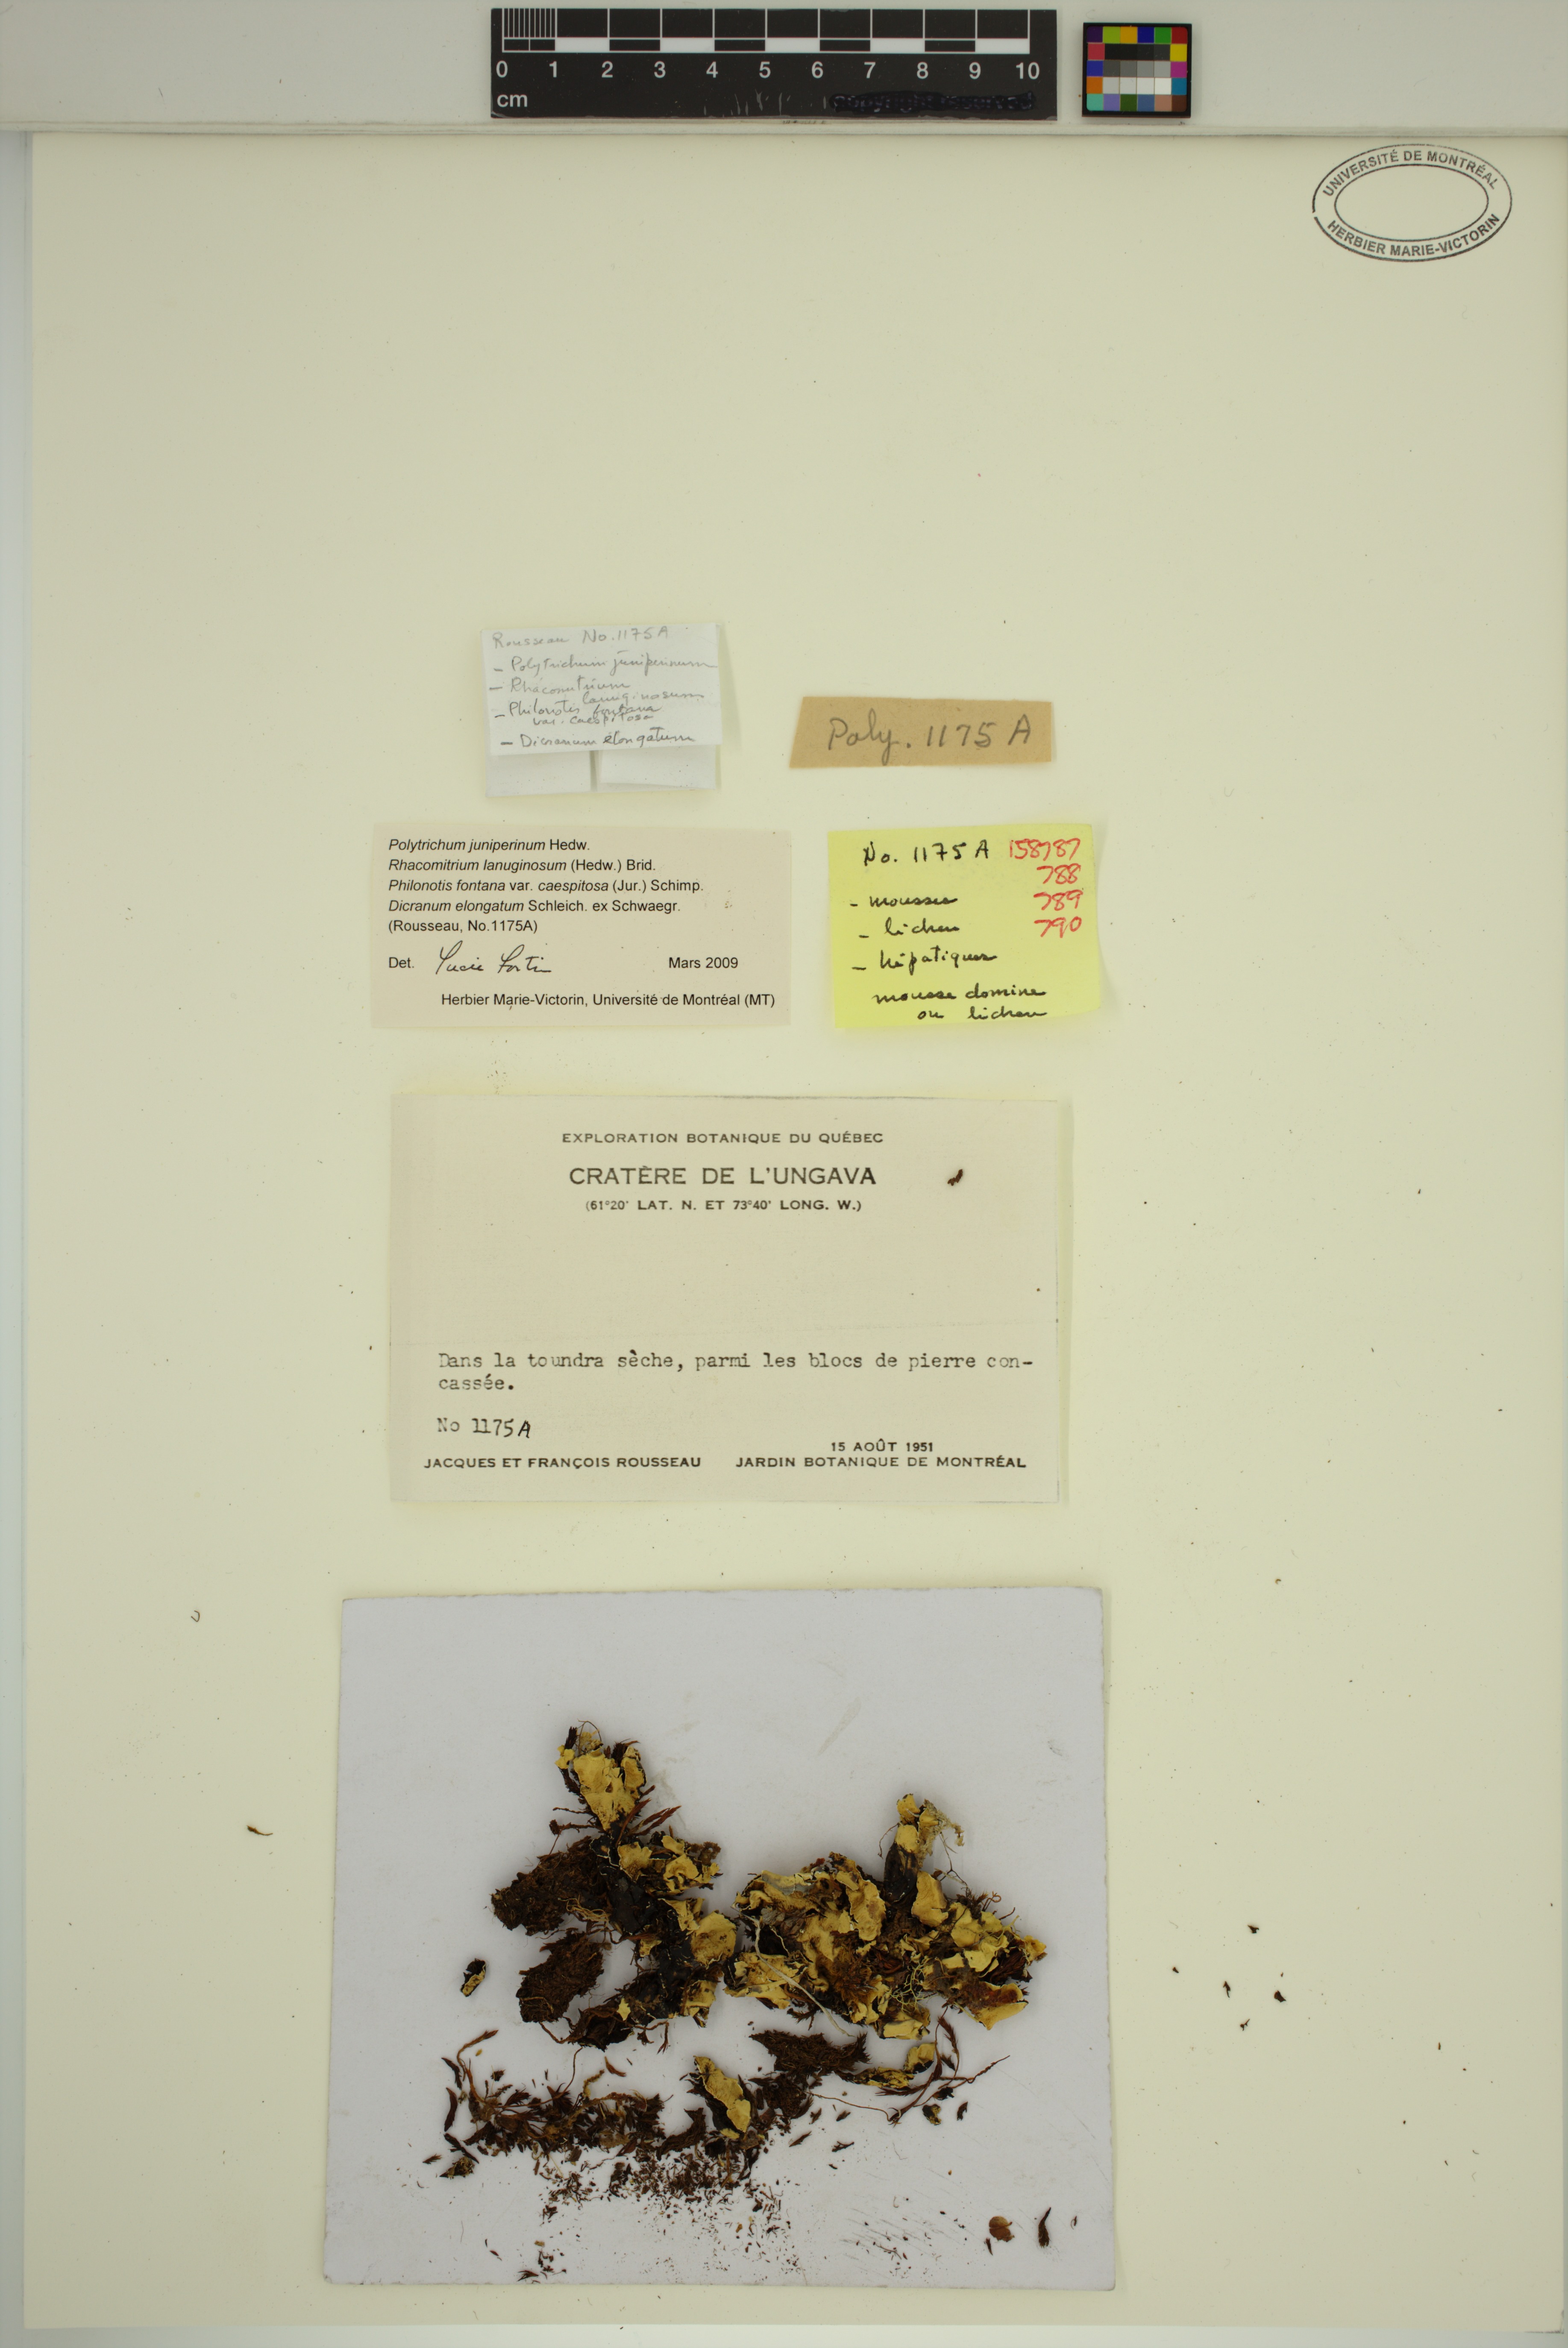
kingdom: Plantae
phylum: Bryophyta
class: Polytrichopsida
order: Polytrichales
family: Polytrichaceae
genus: Polytrichum
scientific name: Polytrichum juniperinum
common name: Juniper haircap moss
